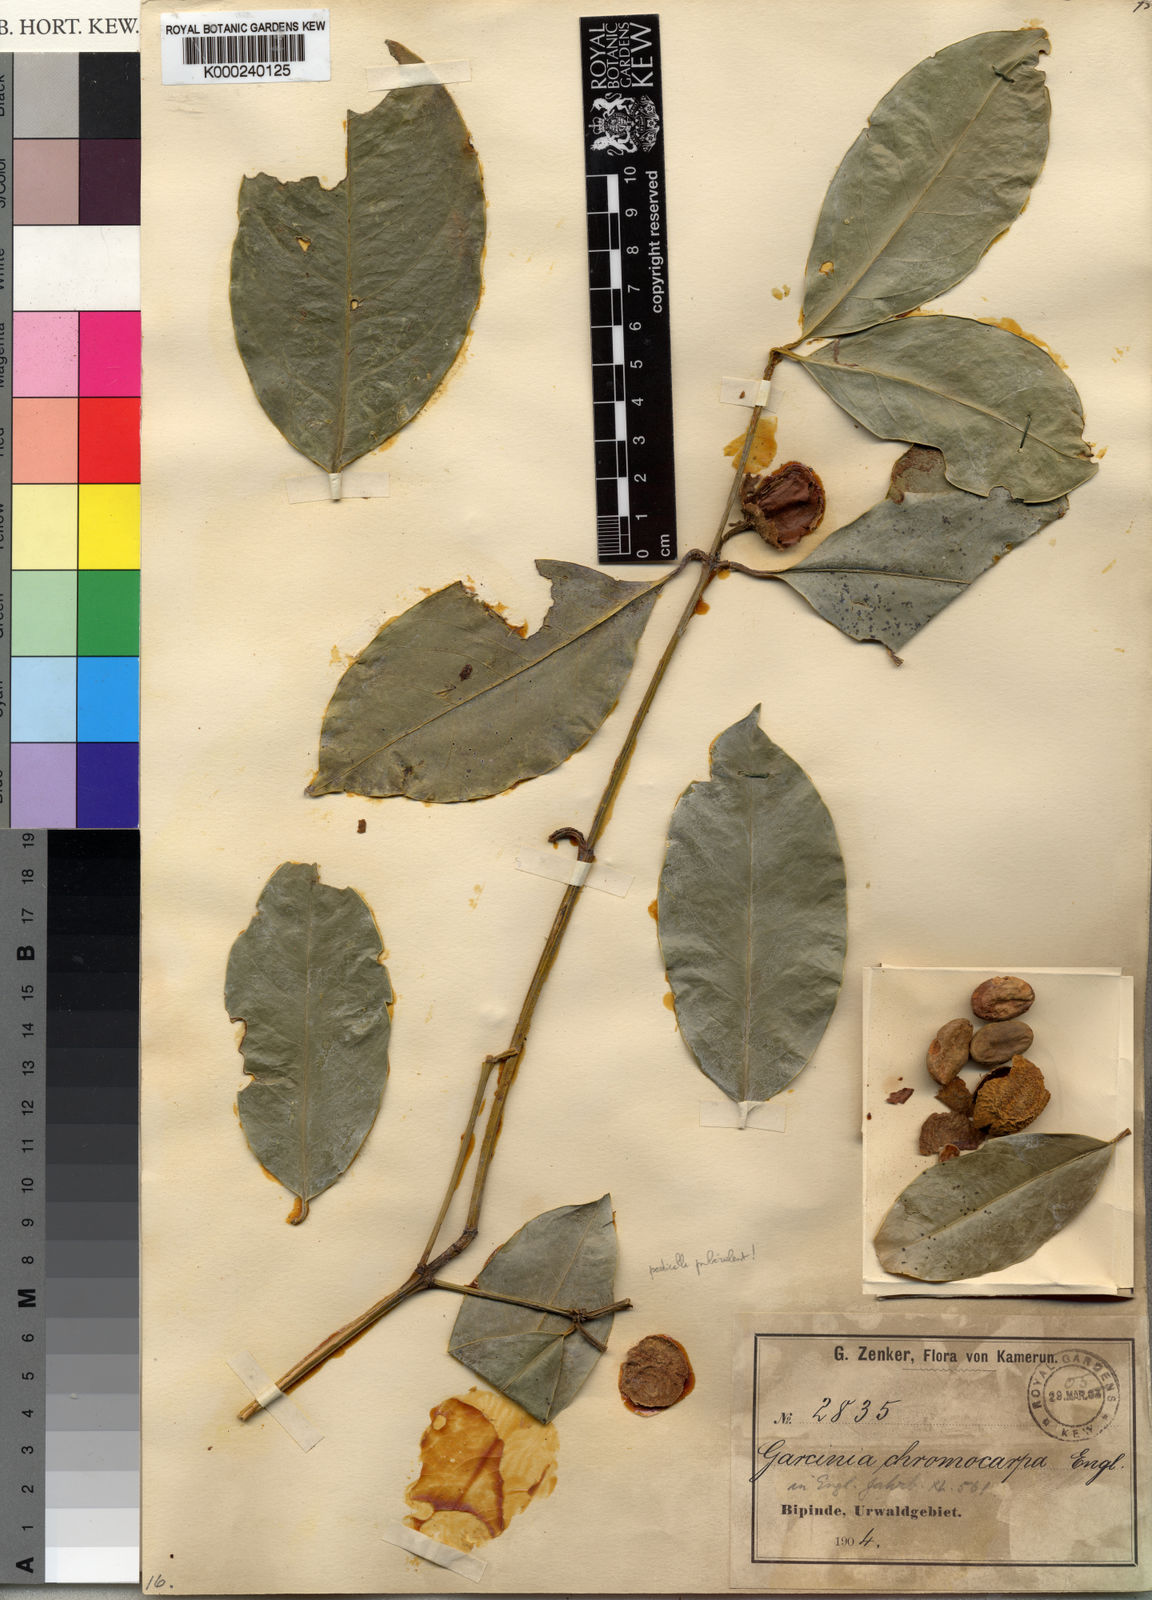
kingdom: Plantae
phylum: Tracheophyta
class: Magnoliopsida
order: Malpighiales
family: Clusiaceae
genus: Garcinia
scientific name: Garcinia quadrifaria
